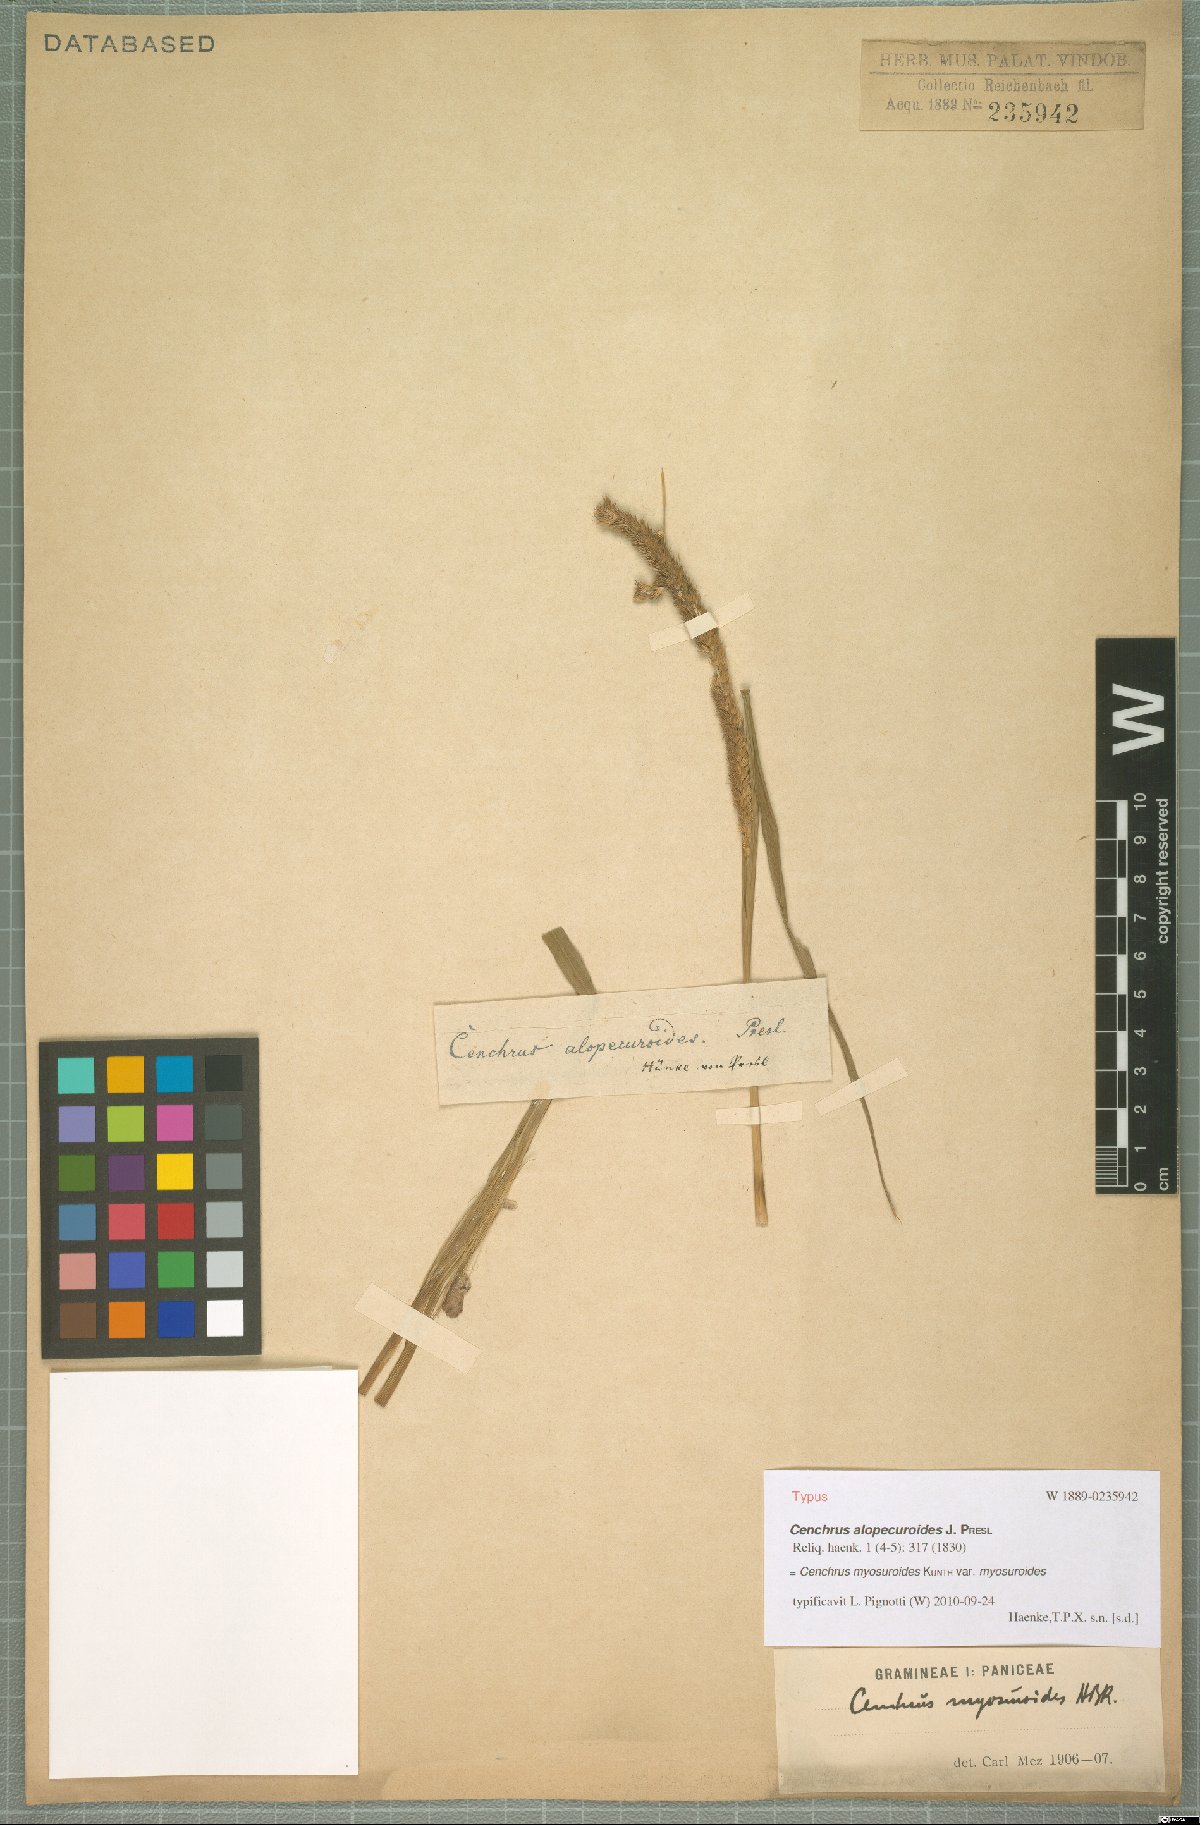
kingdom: Plantae
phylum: Tracheophyta
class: Liliopsida
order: Poales
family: Poaceae
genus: Cenchrus
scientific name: Cenchrus myosuroides
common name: Big sandbur
